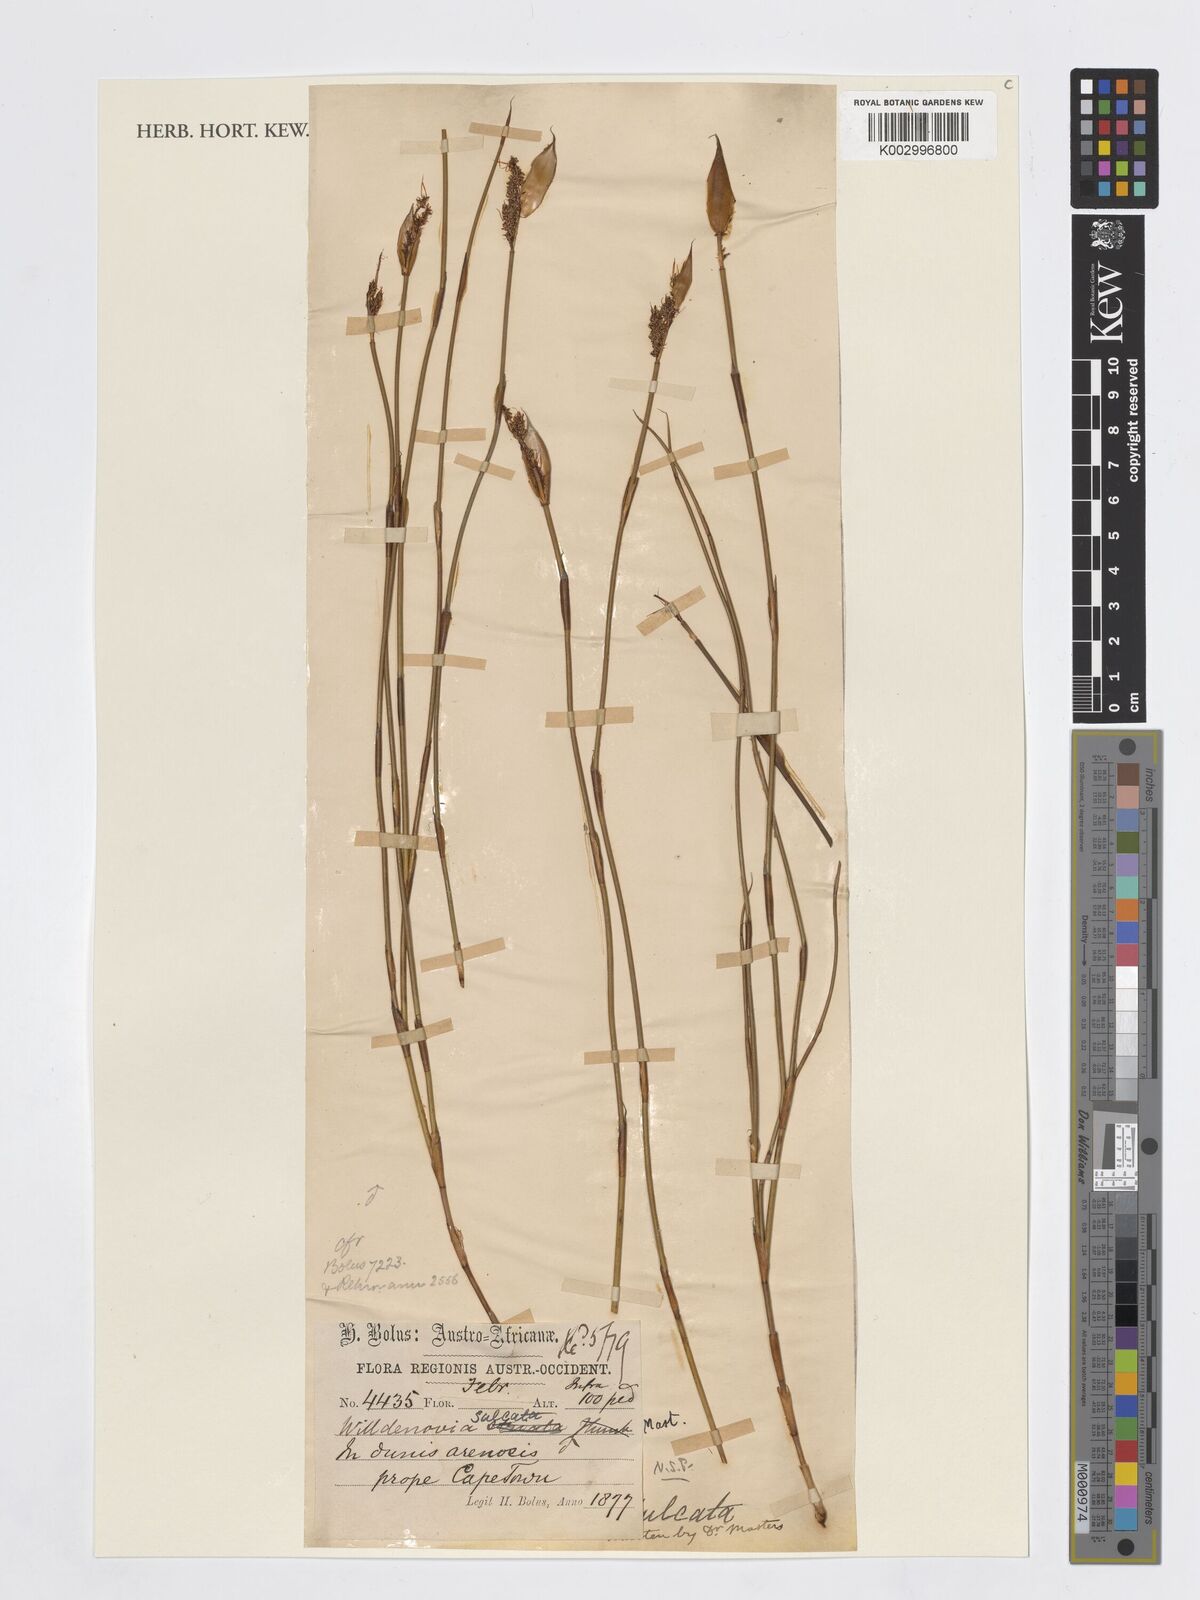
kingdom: Plantae
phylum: Tracheophyta
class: Liliopsida
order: Poales
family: Restionaceae
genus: Willdenowia
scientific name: Willdenowia sulcata
